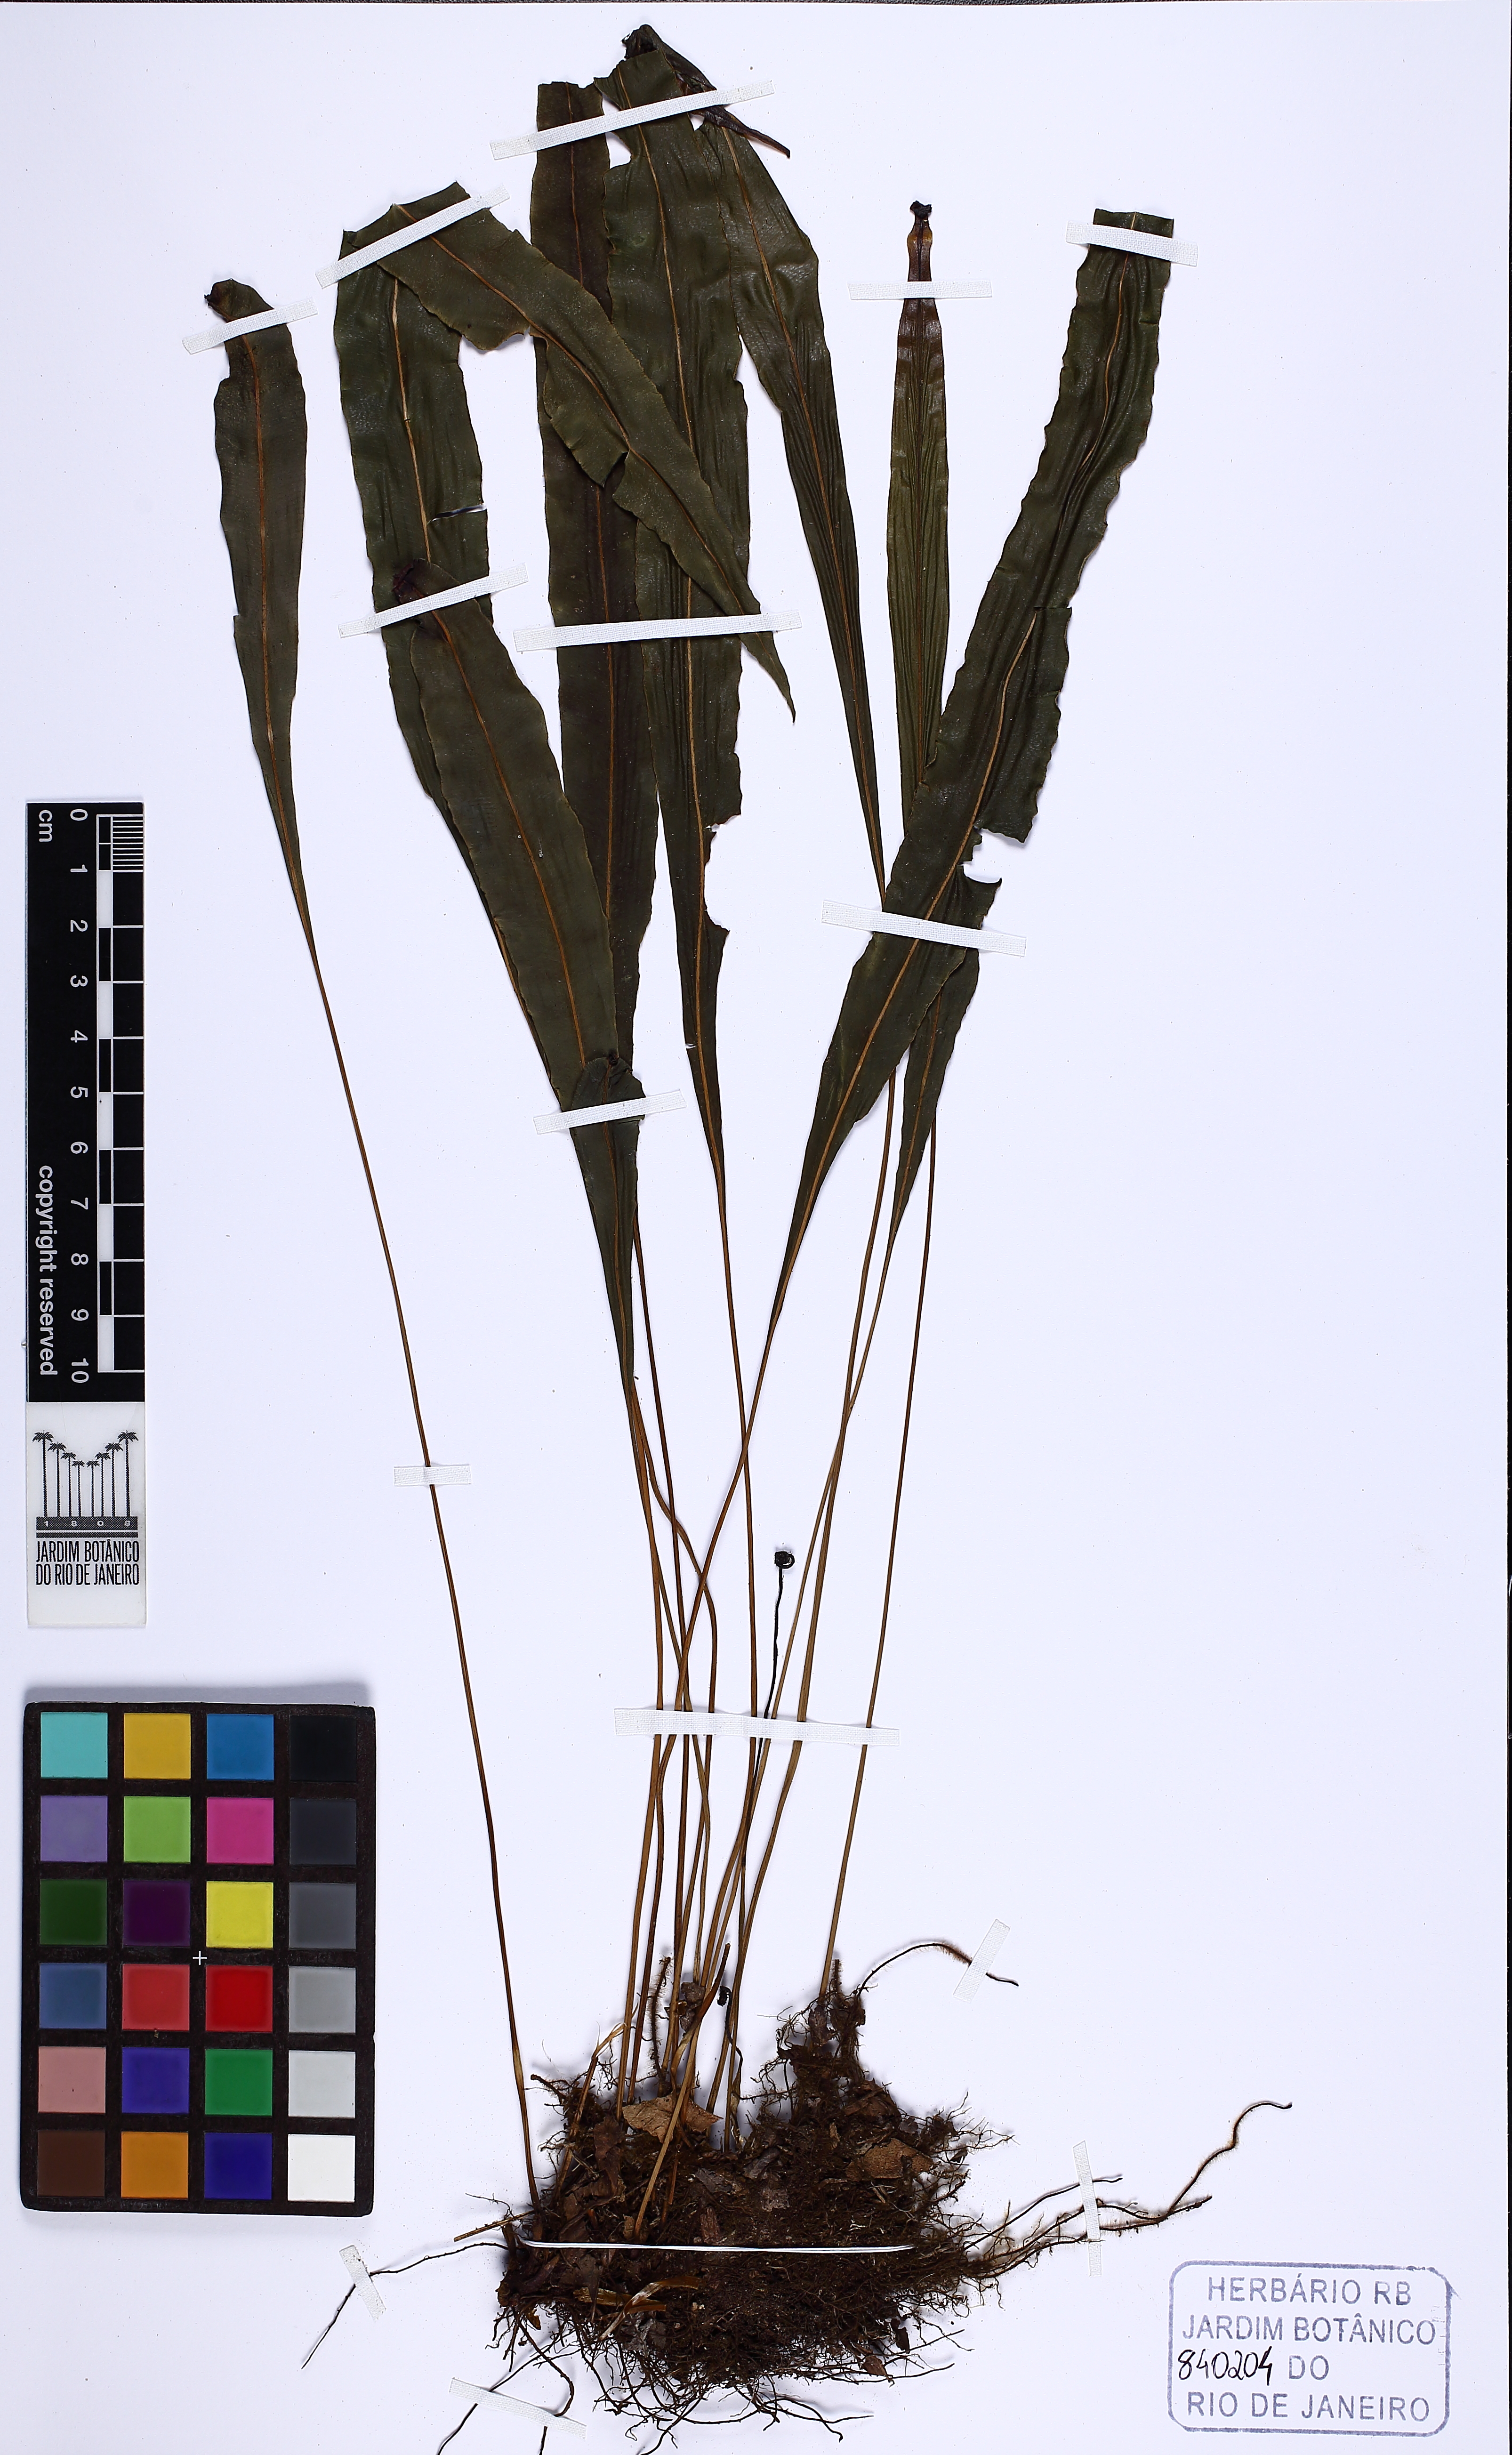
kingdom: Plantae
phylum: Tracheophyta
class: Polypodiopsida
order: Polypodiales
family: Dryopteridaceae
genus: Elaphoglossum
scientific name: Elaphoglossum burchellii
